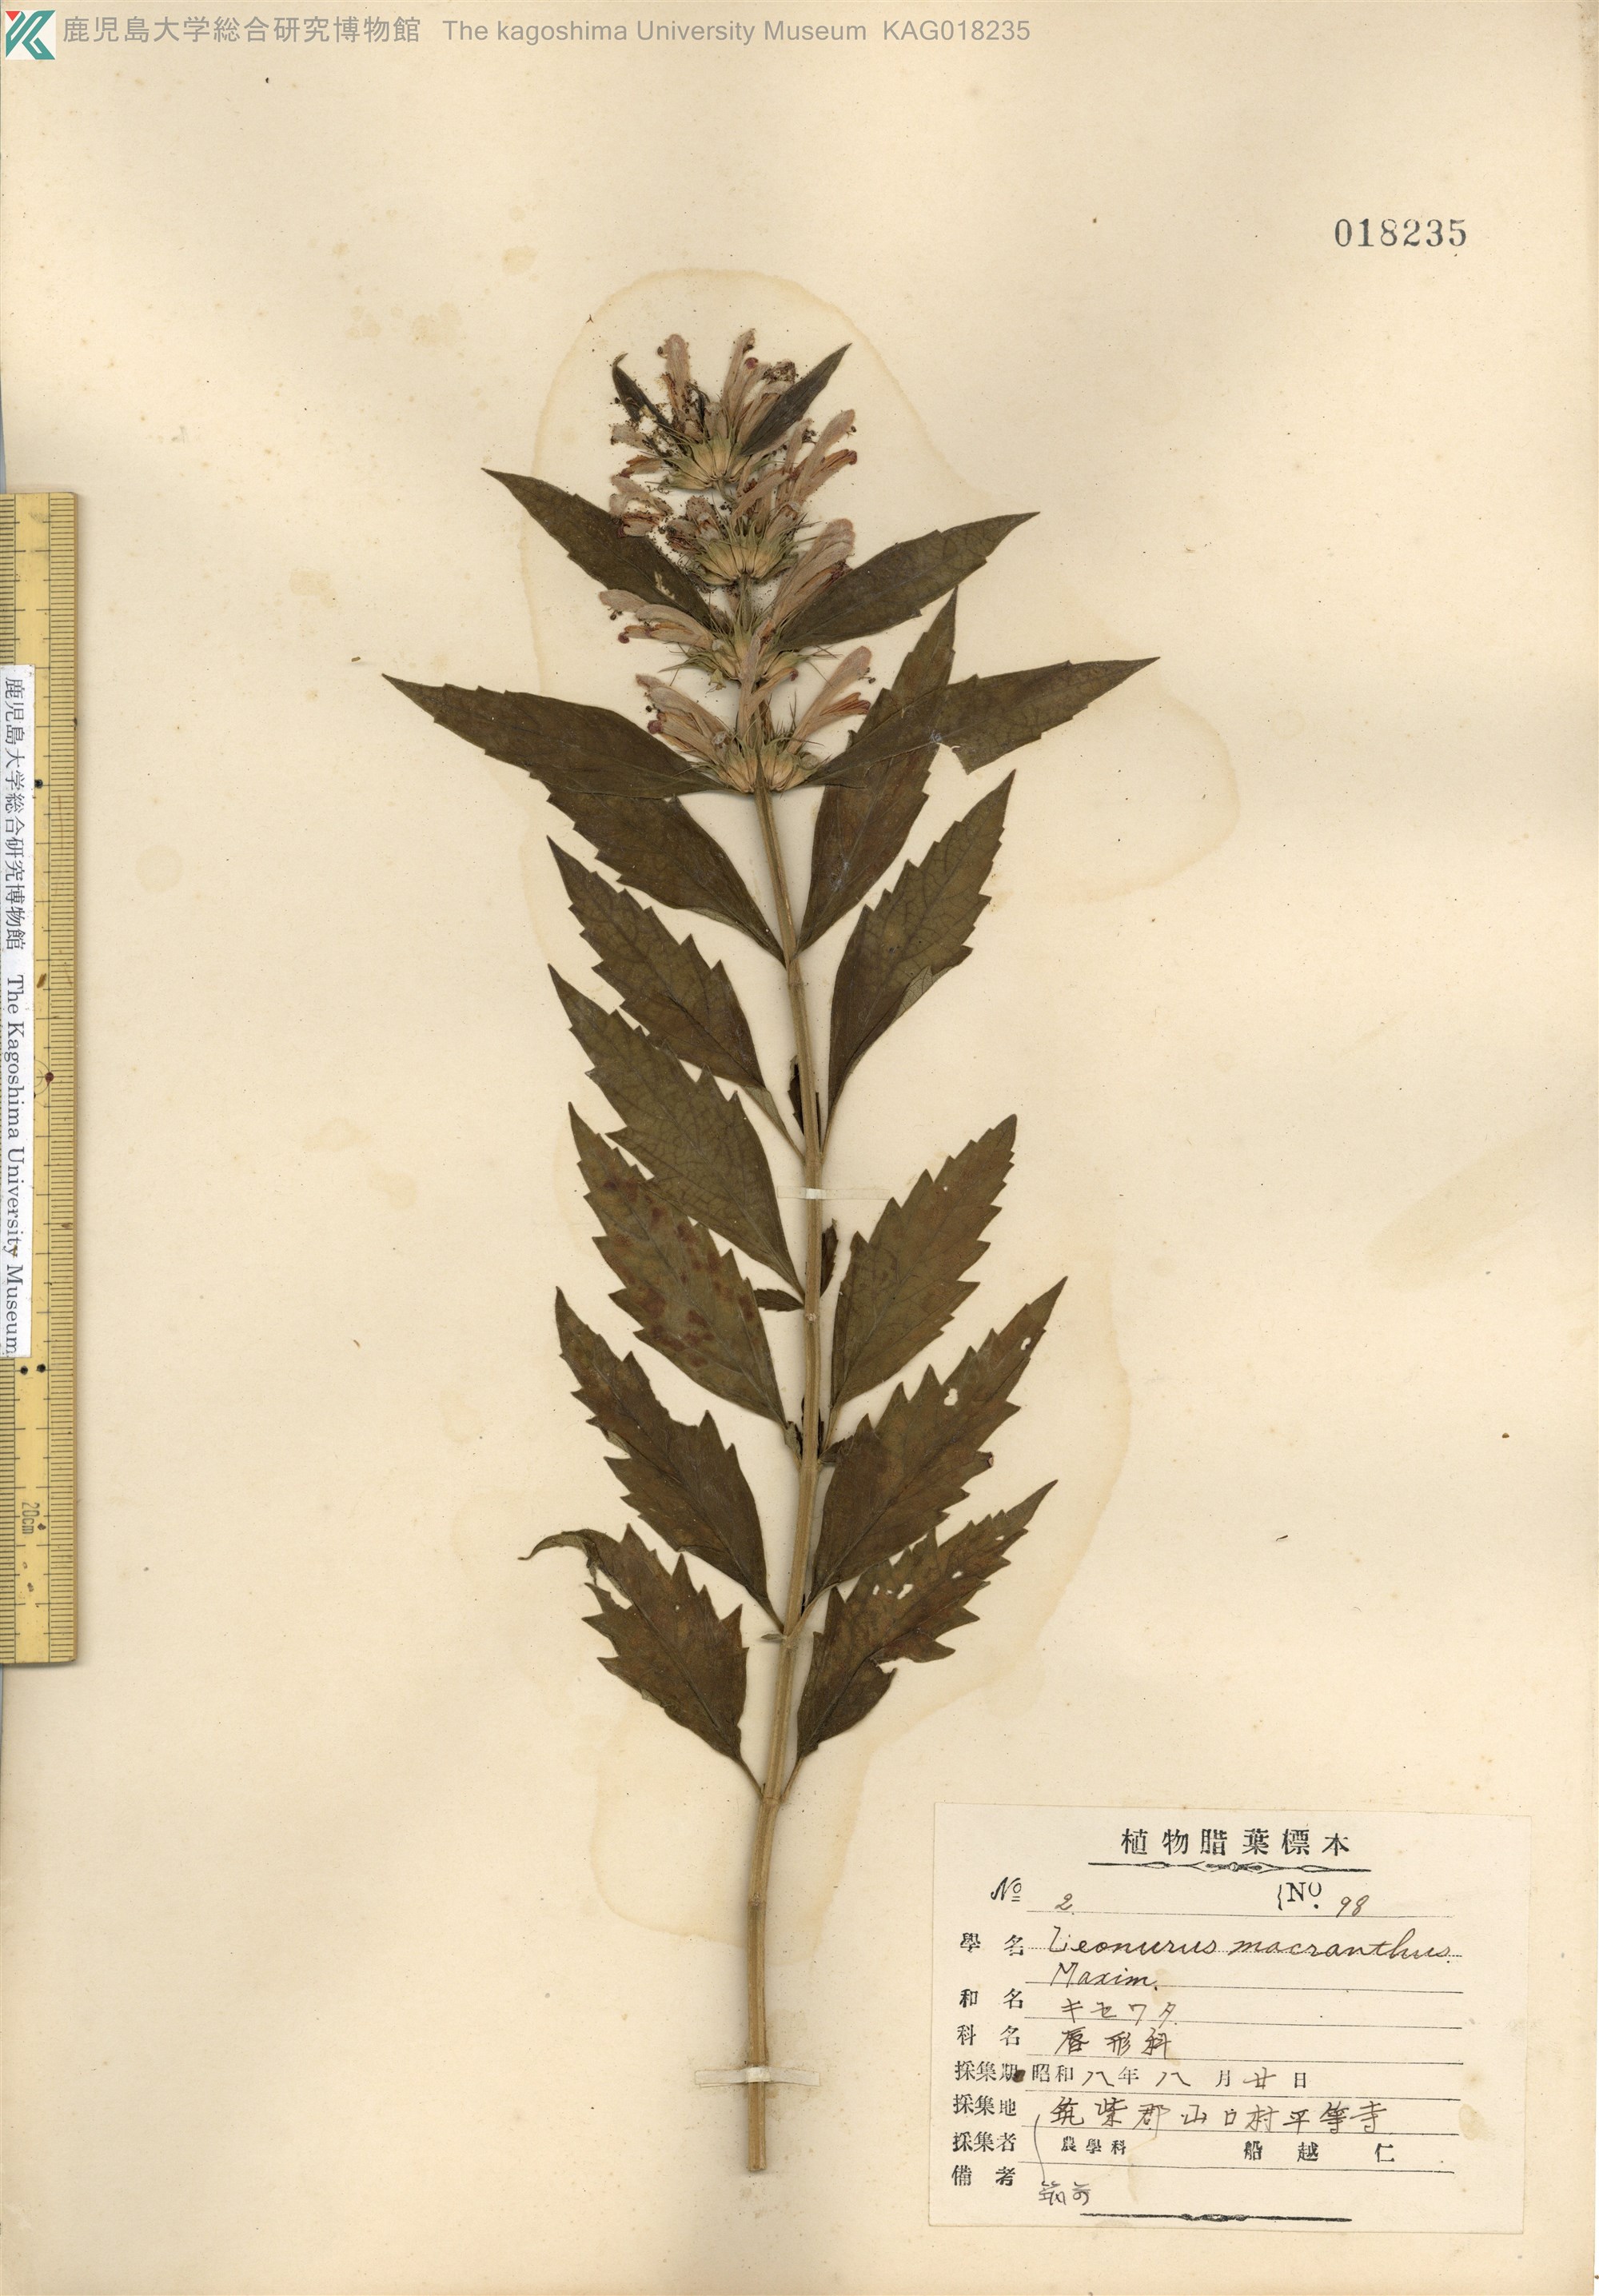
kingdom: Plantae
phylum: Tracheophyta
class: Magnoliopsida
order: Lamiales
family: Lamiaceae
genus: Leonurus
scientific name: Leonurus macranthus
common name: キセワタ
